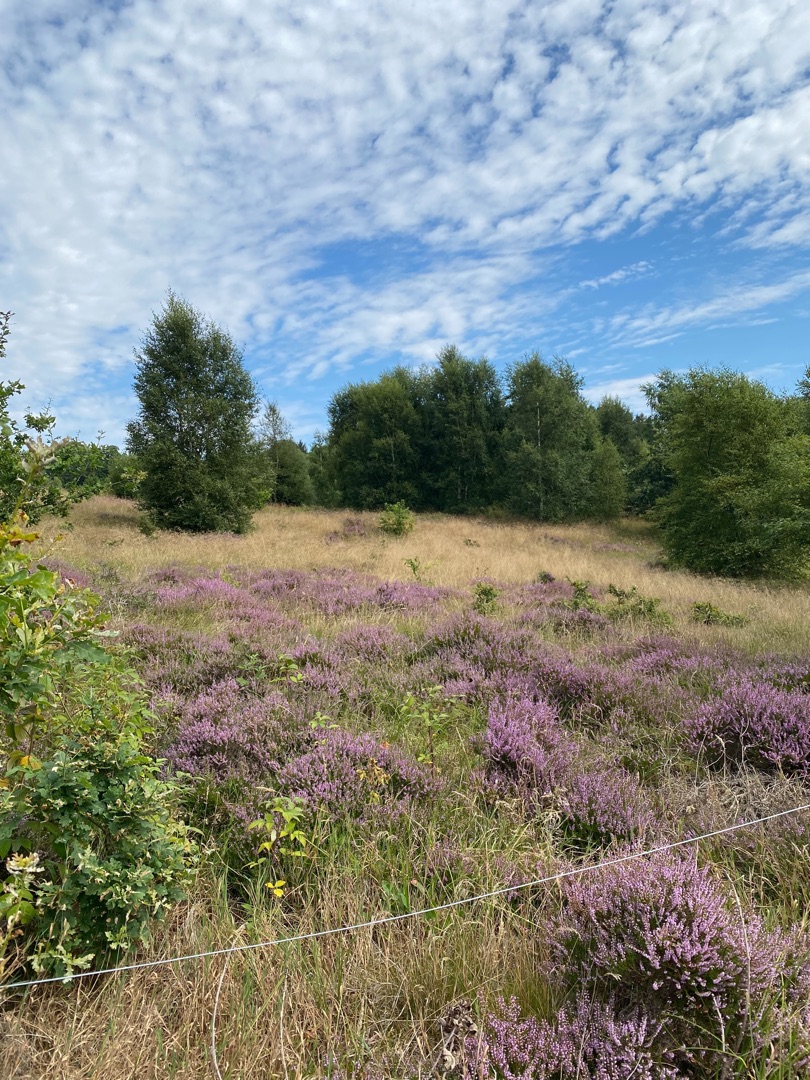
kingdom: Plantae
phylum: Tracheophyta
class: Magnoliopsida
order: Ericales
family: Ericaceae
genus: Calluna
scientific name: Calluna vulgaris
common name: Hedelyng
